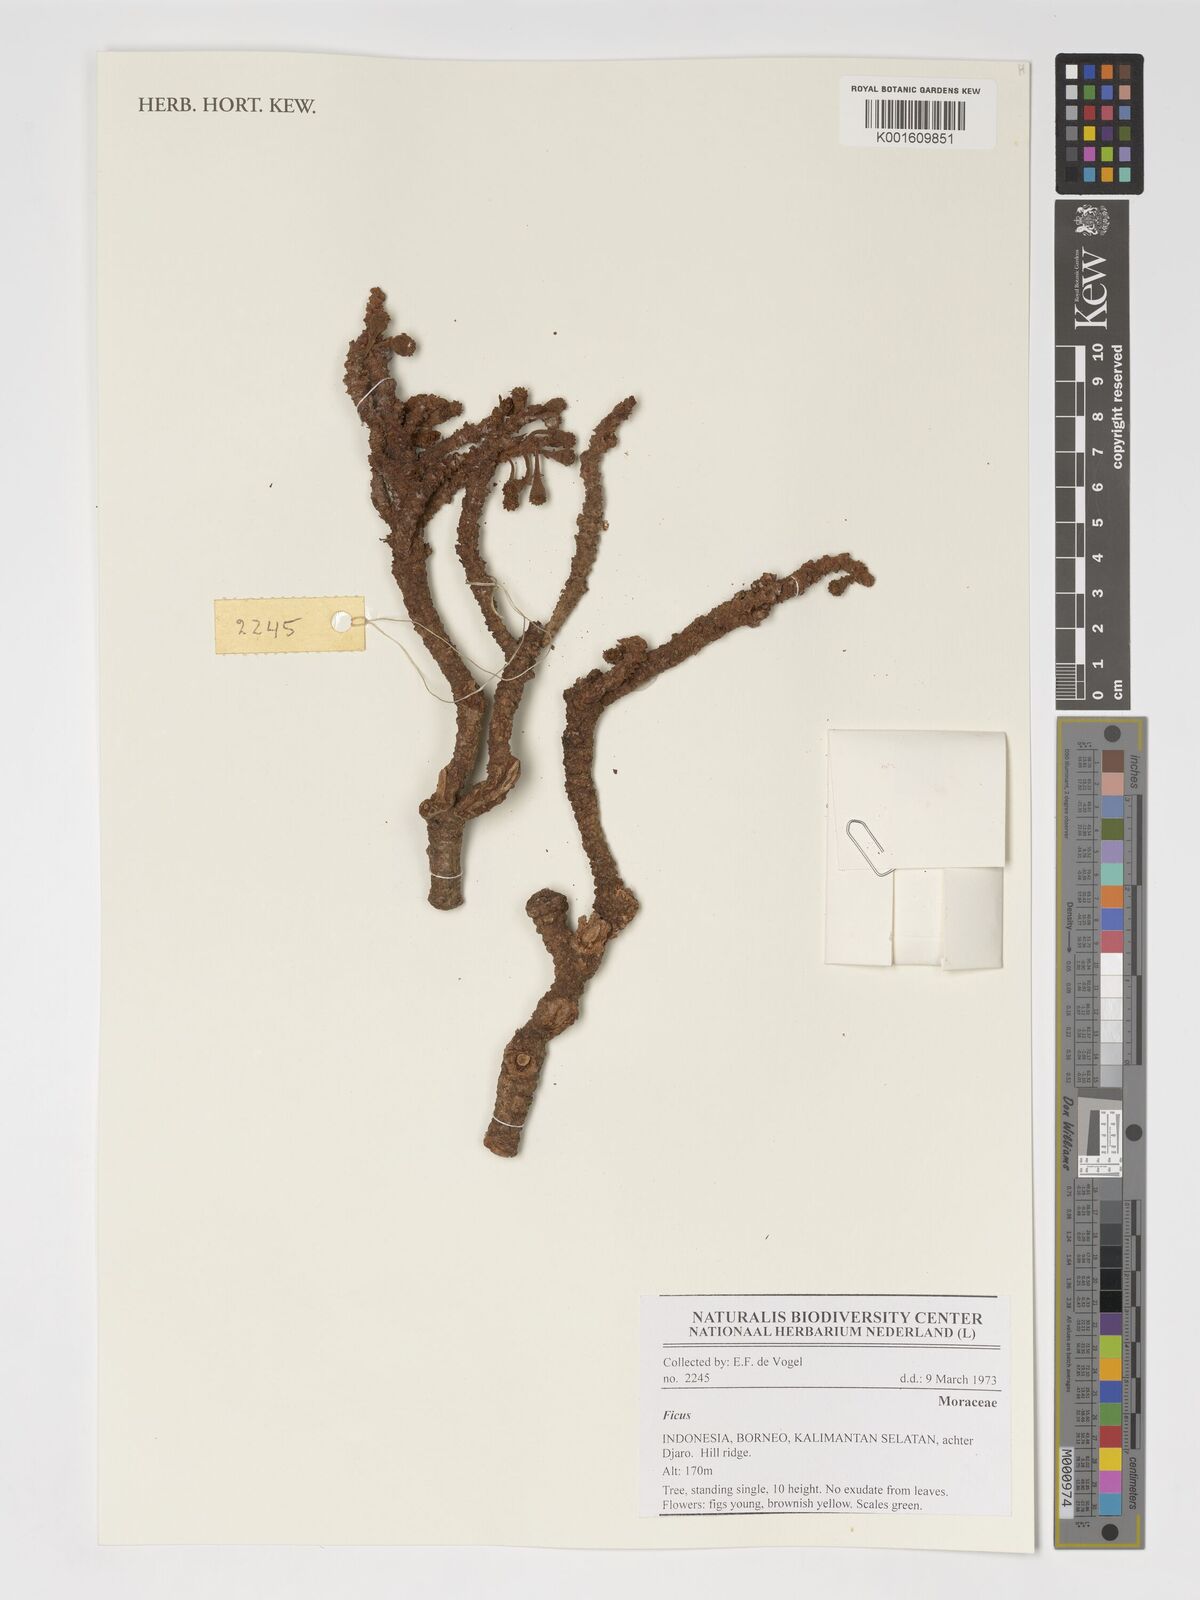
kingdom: Plantae
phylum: Tracheophyta
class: Magnoliopsida
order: Rosales
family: Moraceae
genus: Ficus
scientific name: Ficus
